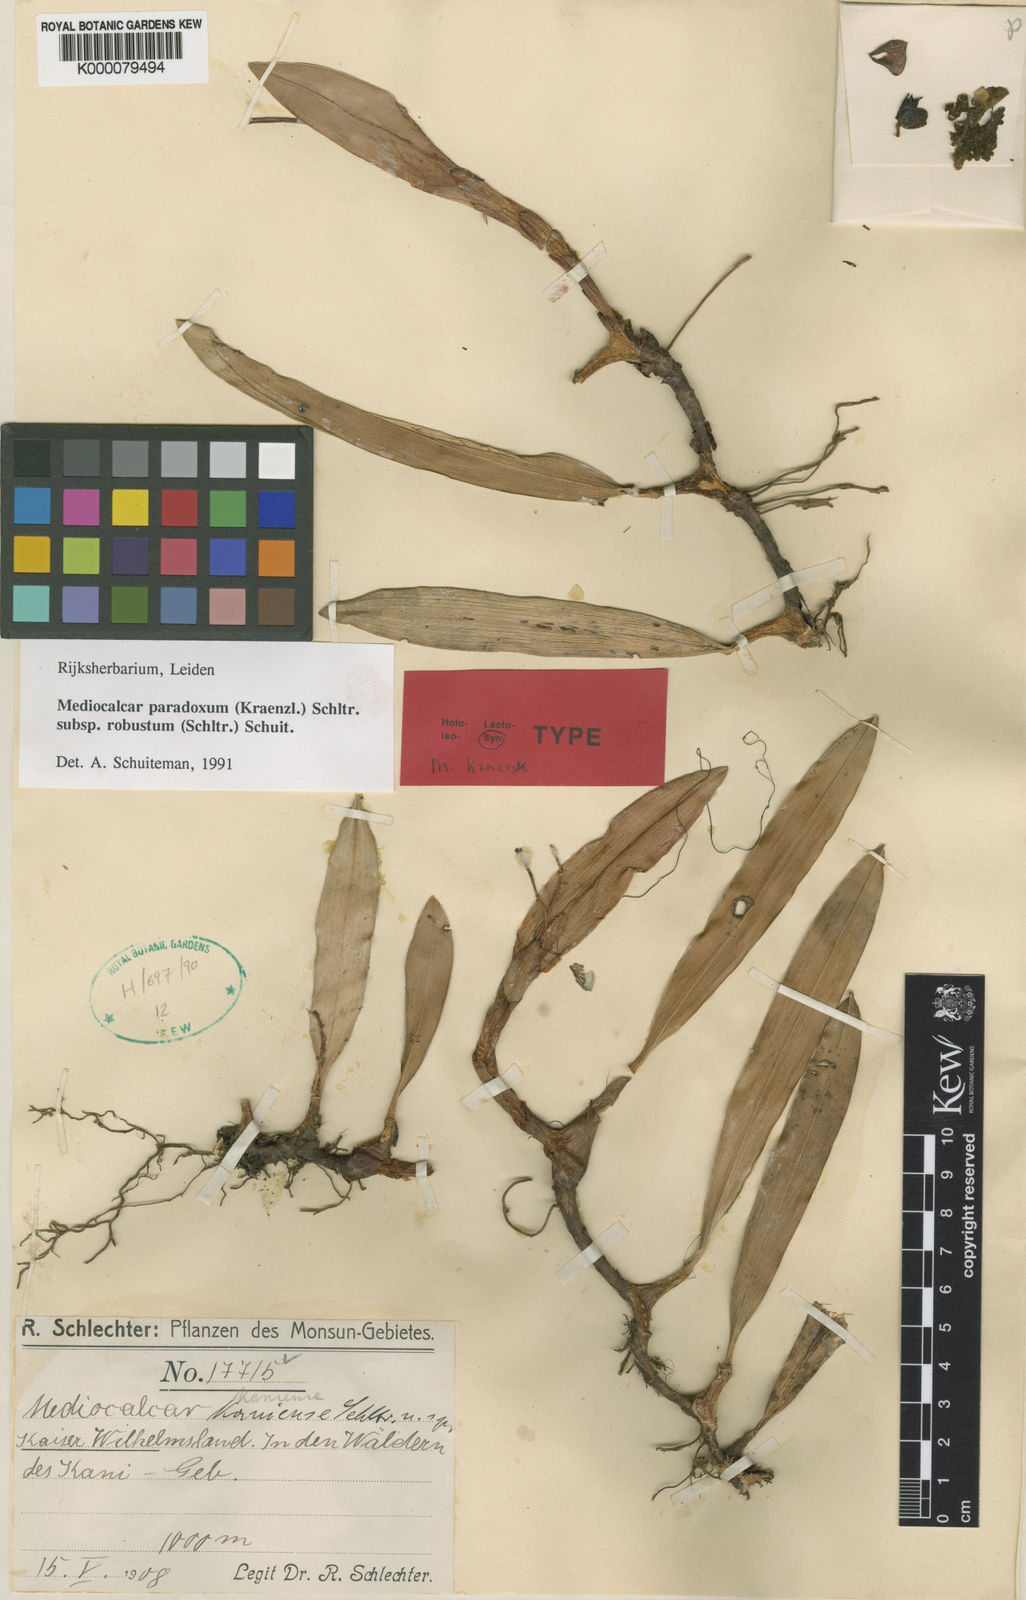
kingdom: Plantae
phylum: Tracheophyta
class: Liliopsida
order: Asparagales
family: Orchidaceae
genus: Mediocalcar
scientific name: Mediocalcar paradoxum
